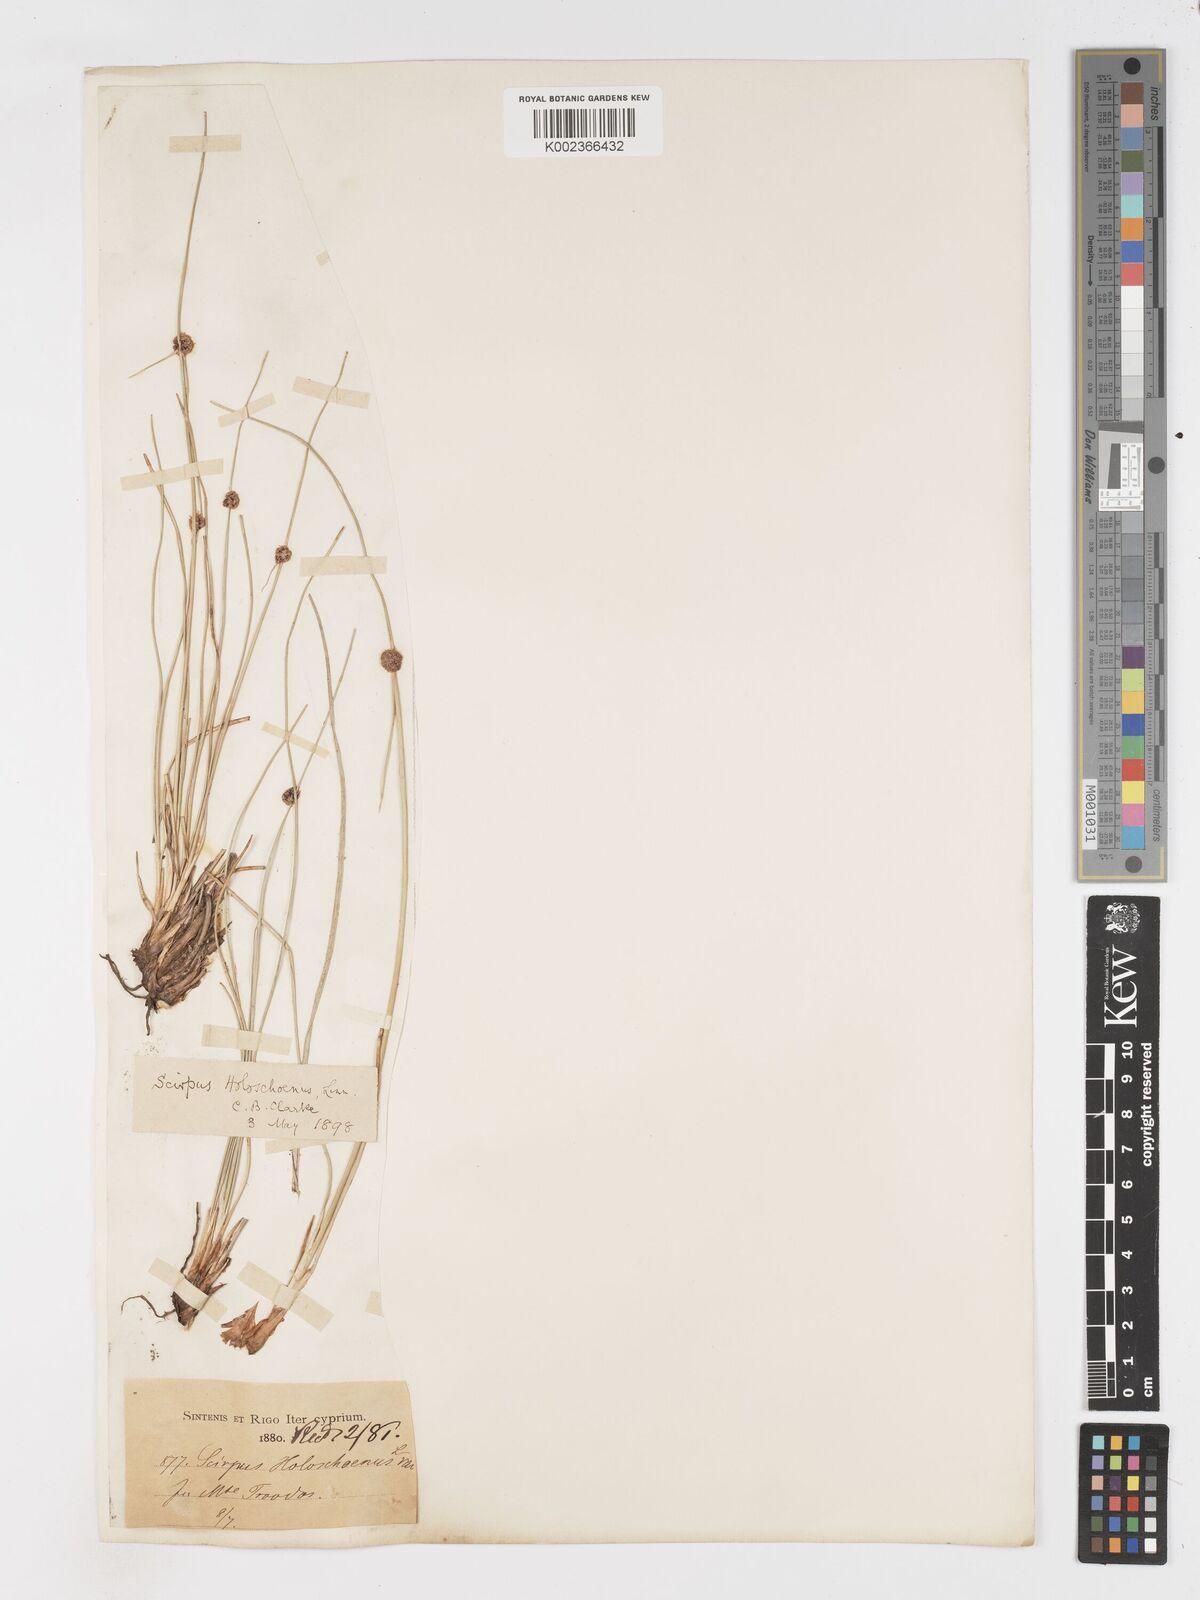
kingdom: Plantae
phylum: Tracheophyta
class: Liliopsida
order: Poales
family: Cyperaceae
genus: Scirpoides
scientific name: Scirpoides holoschoenus
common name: Round-headed club-rush
